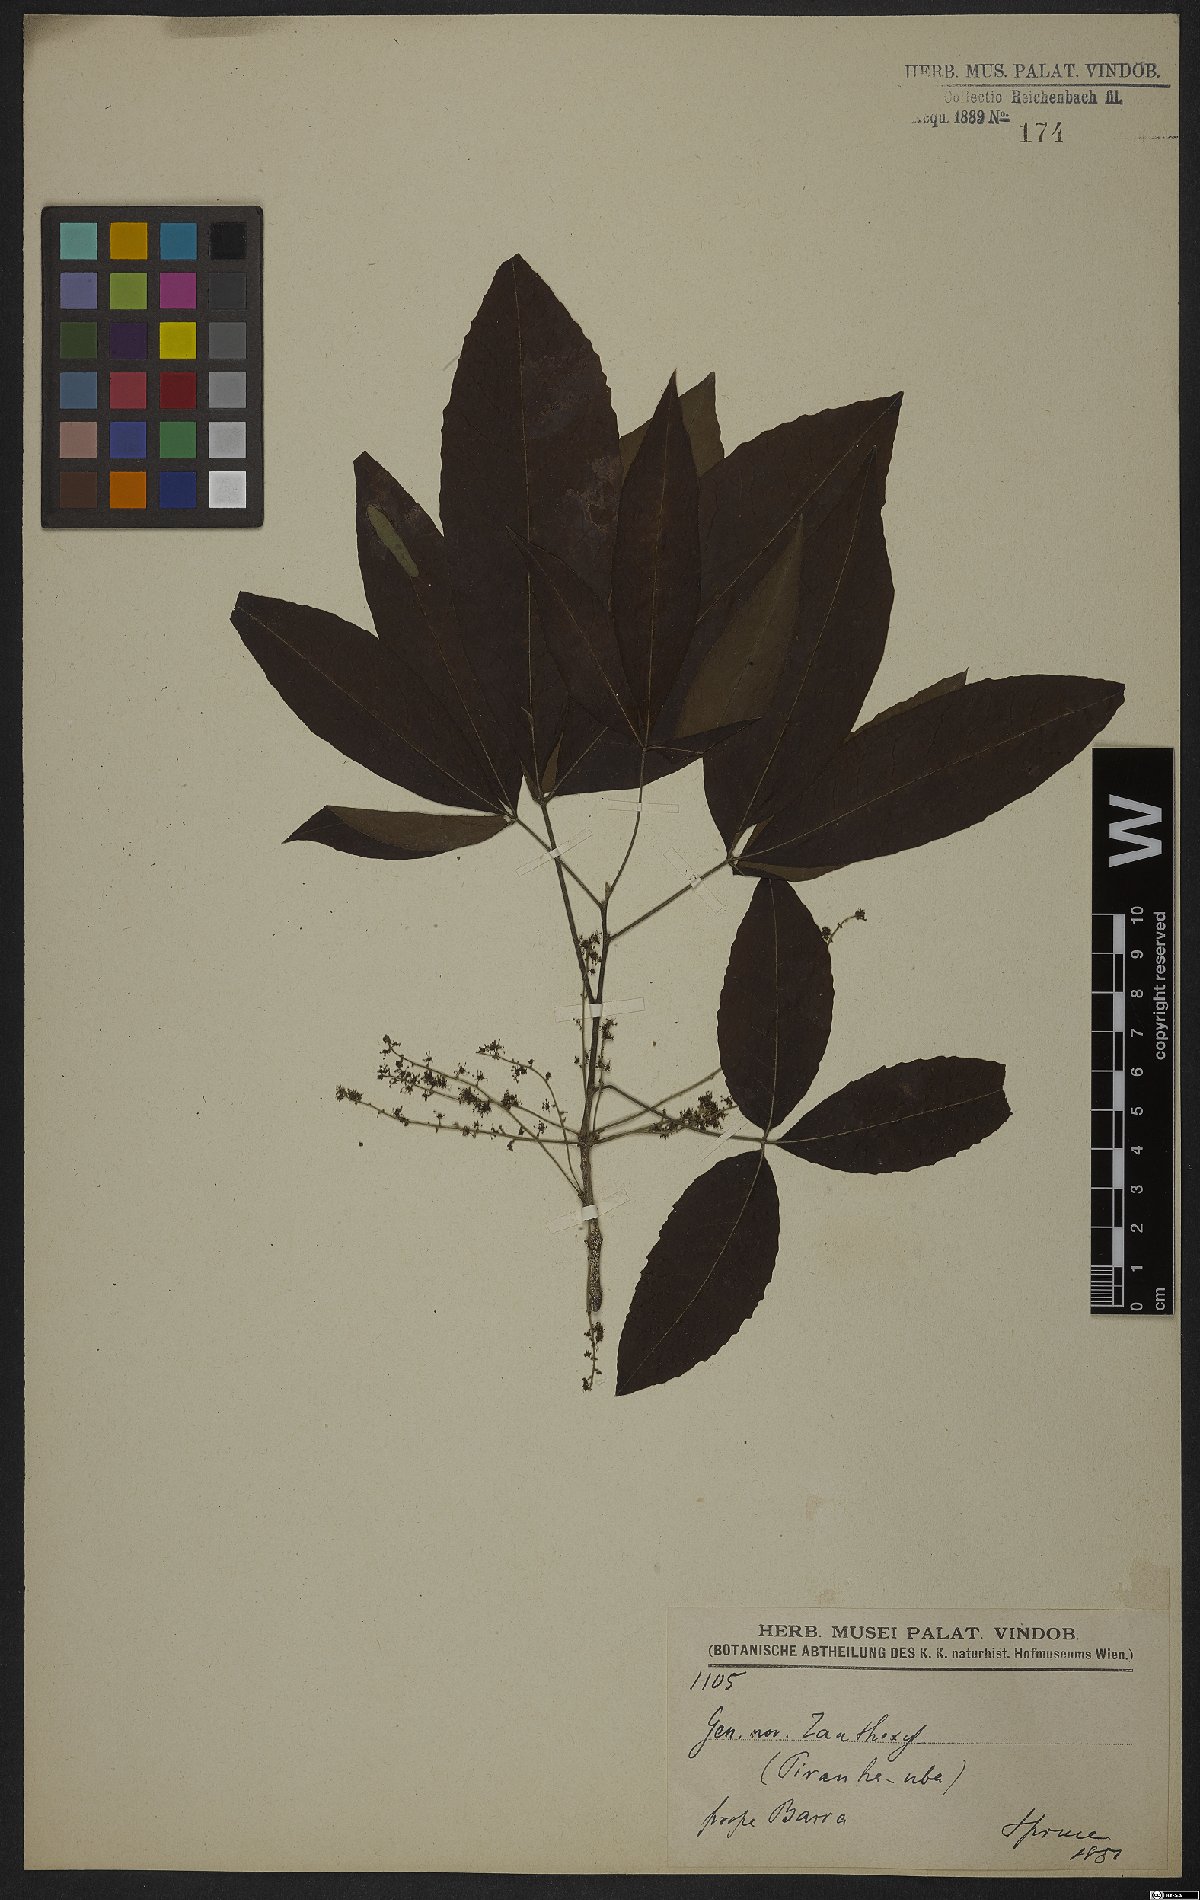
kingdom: Plantae
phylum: Tracheophyta
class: Magnoliopsida
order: Malpighiales
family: Picrodendraceae
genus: Piranhea
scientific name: Piranhea trifoliata
